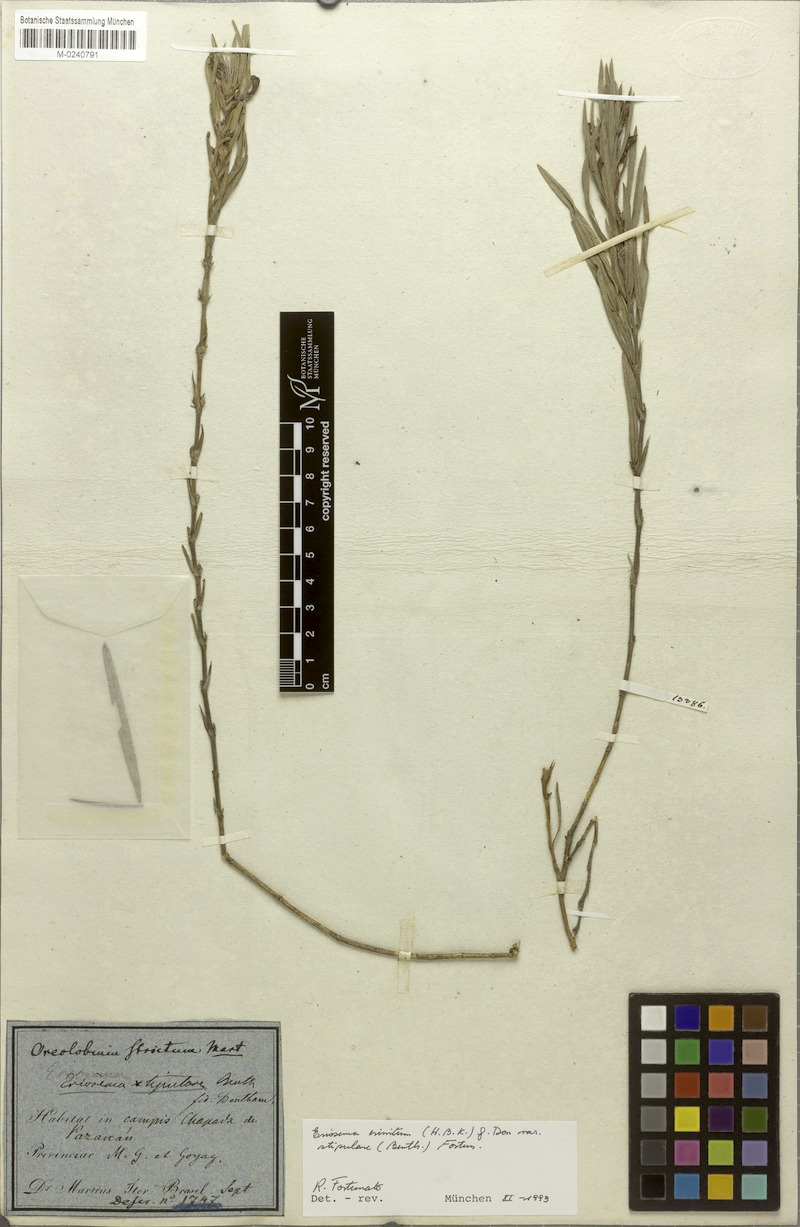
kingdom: Plantae
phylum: Tracheophyta
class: Magnoliopsida
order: Fabales
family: Fabaceae
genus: Eriosema
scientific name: Eriosema crinitum
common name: Sand pea
